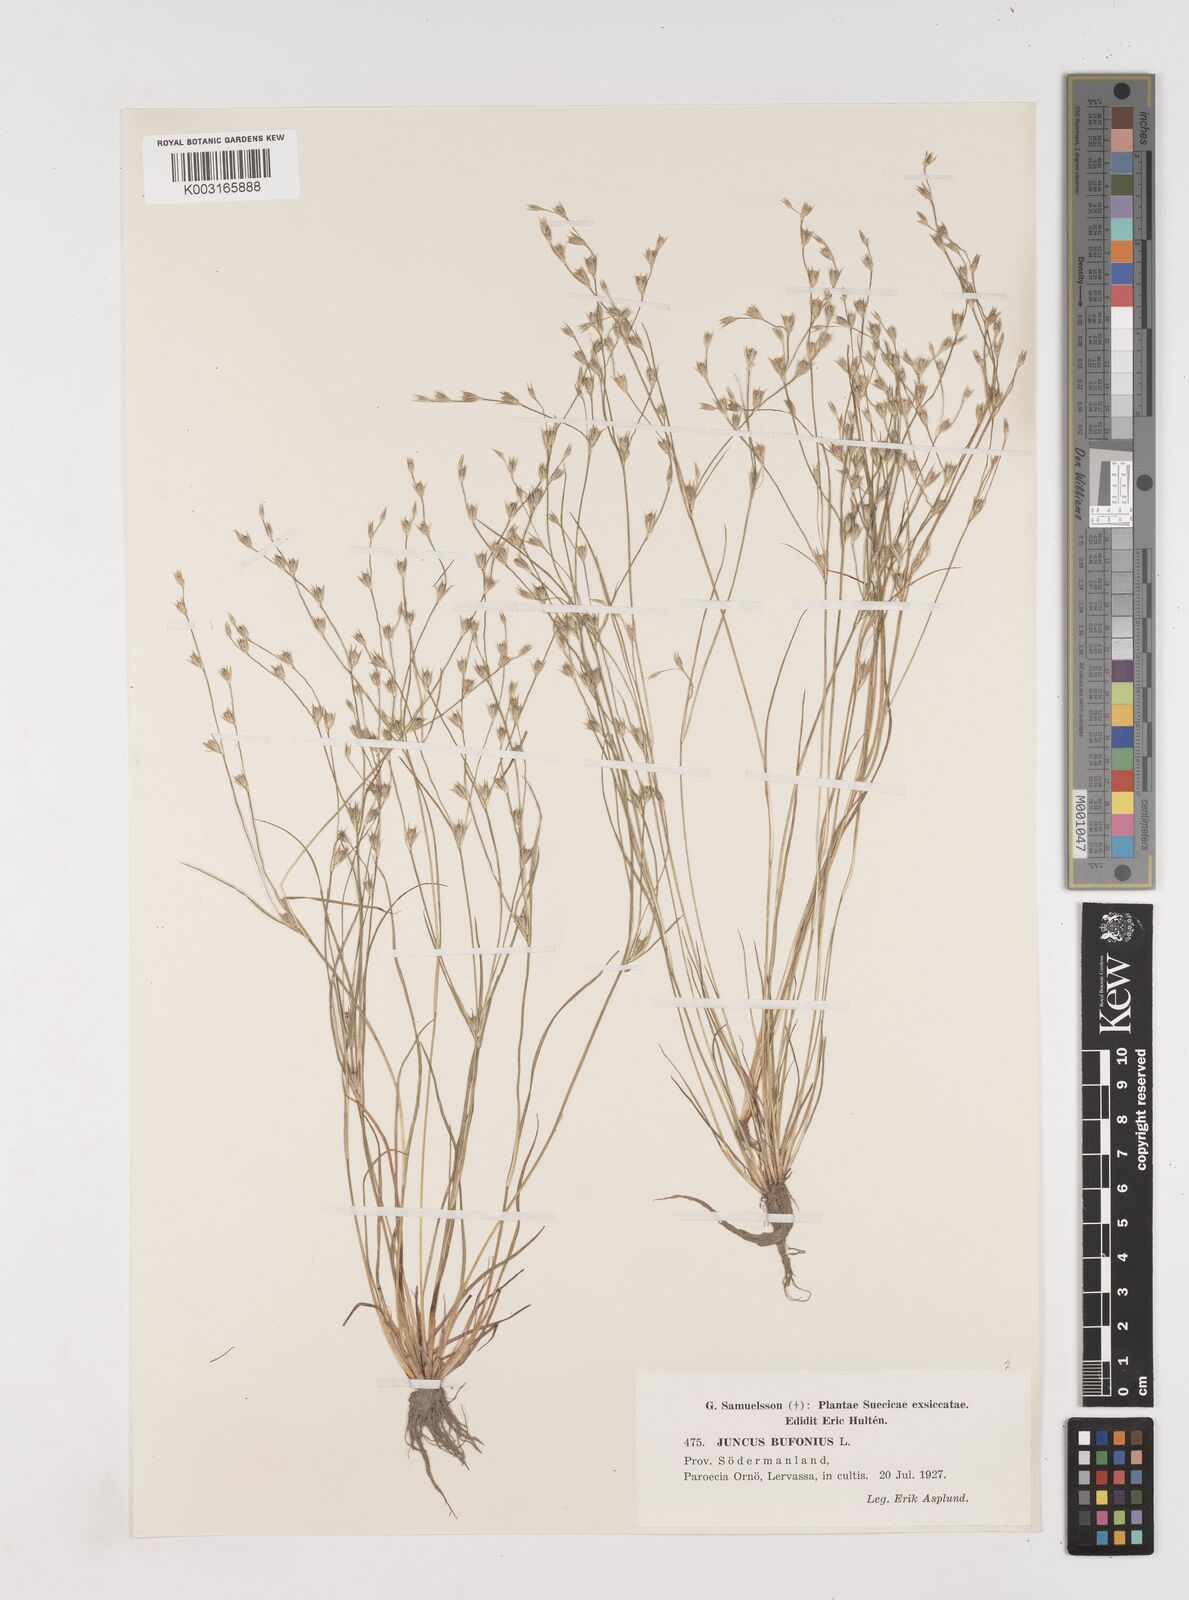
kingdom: Plantae
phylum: Tracheophyta
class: Liliopsida
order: Poales
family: Juncaceae
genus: Juncus
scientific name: Juncus bufonius
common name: Toad rush
